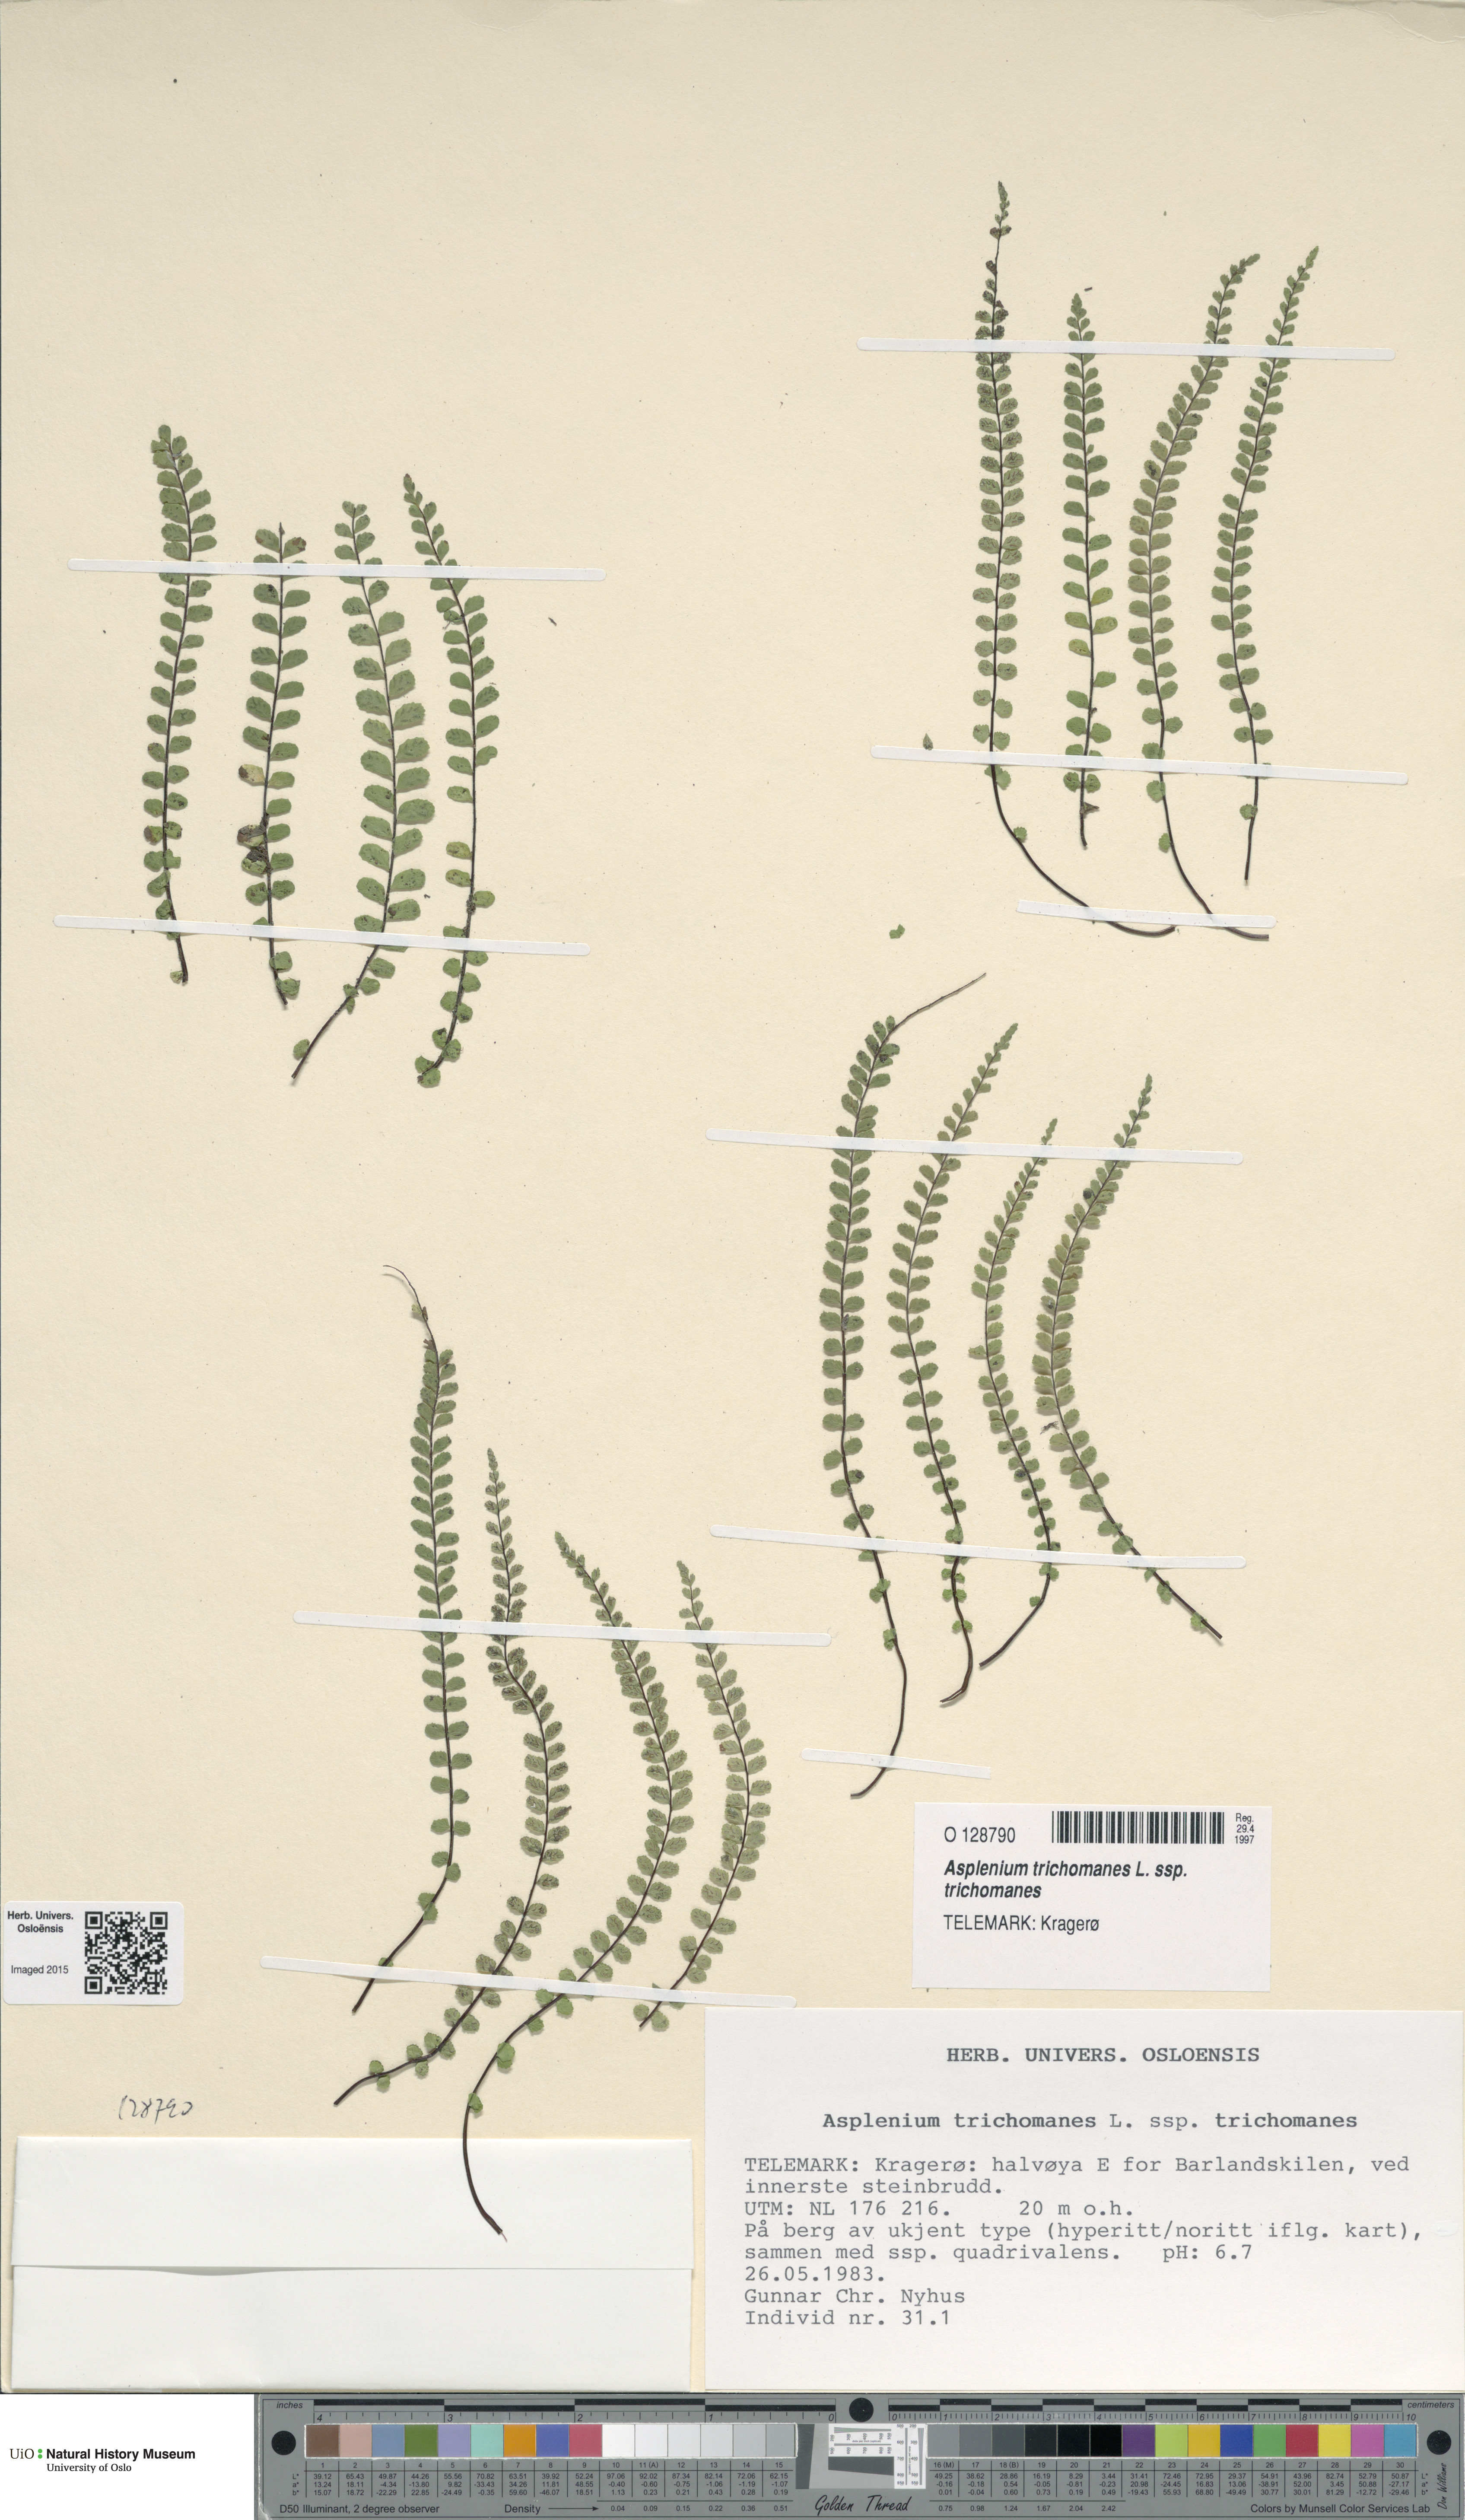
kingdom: Plantae
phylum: Tracheophyta
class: Polypodiopsida
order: Polypodiales
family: Aspleniaceae
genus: Asplenium
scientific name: Asplenium trichomanes
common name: Maidenhair spleenwort
